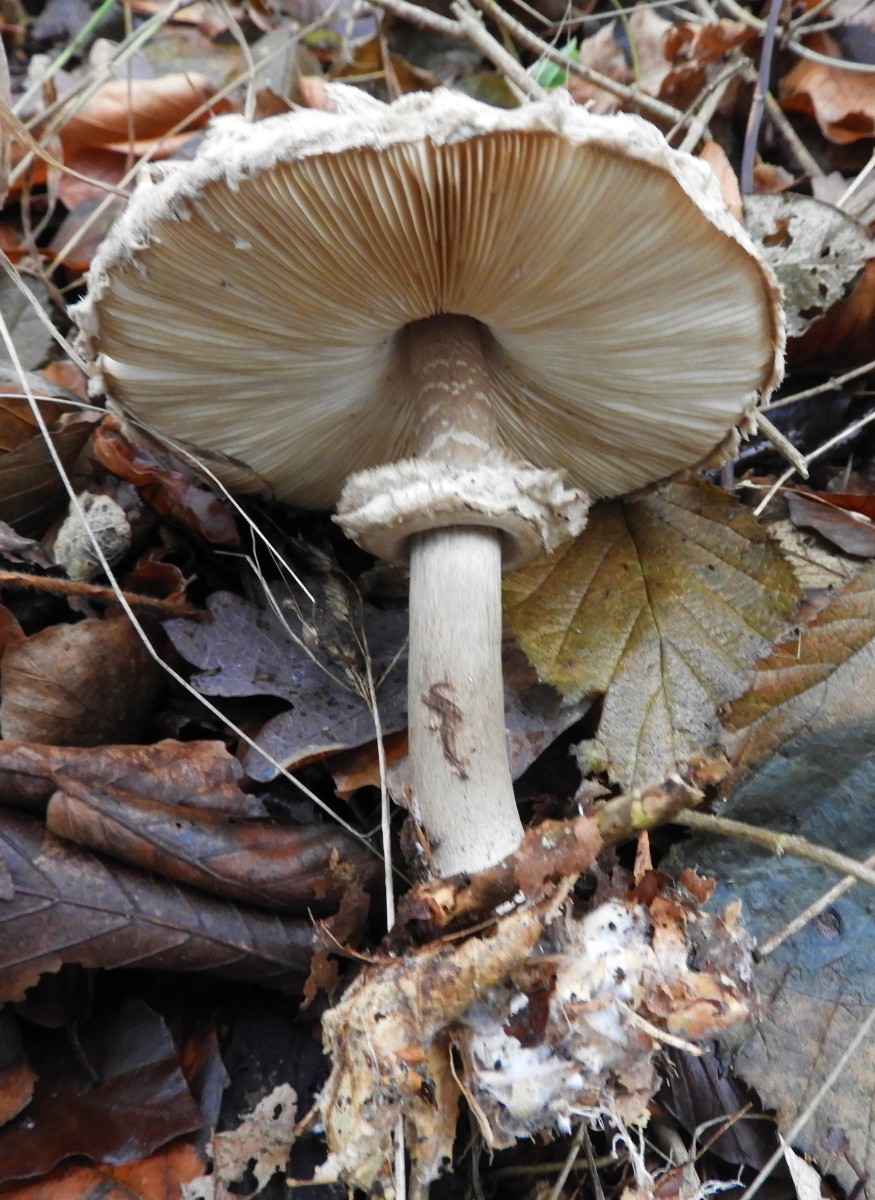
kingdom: Fungi
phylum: Basidiomycota
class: Agaricomycetes
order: Agaricales
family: Agaricaceae
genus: Chlorophyllum
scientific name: Chlorophyllum olivieri
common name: almindelig rabarberhat
